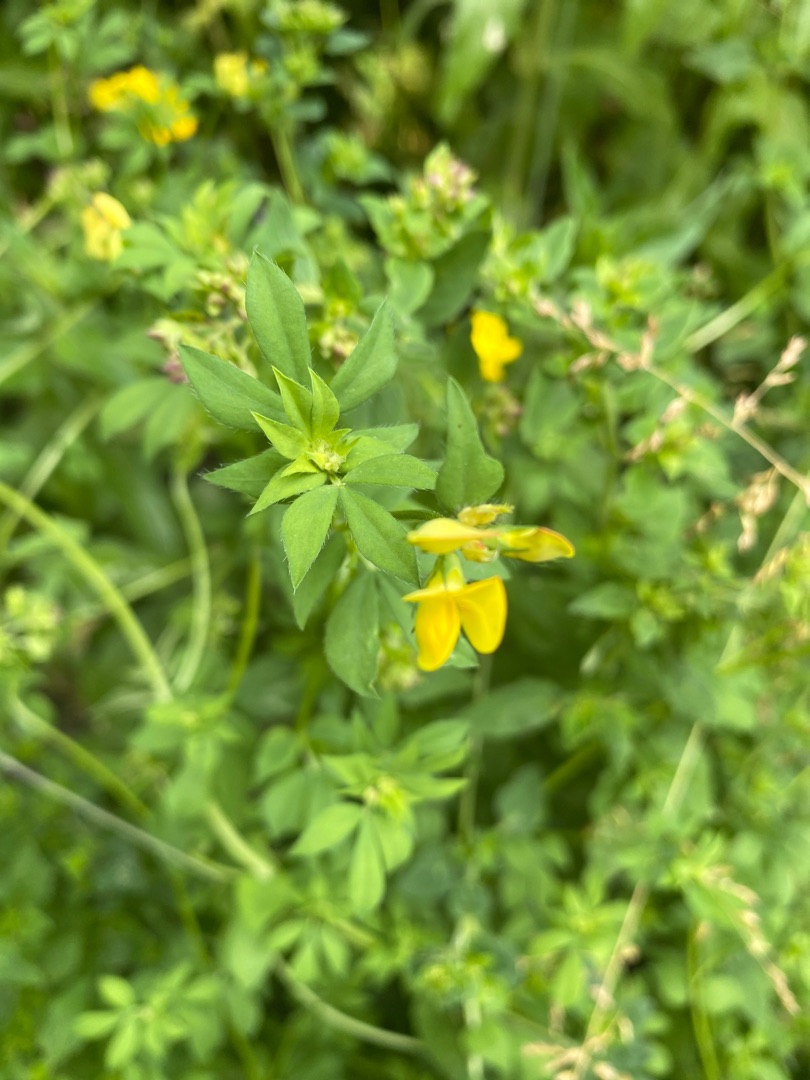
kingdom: Plantae
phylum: Tracheophyta
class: Magnoliopsida
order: Fabales
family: Fabaceae
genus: Lotus
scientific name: Lotus corniculatus
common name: Almindelig kællingetand
